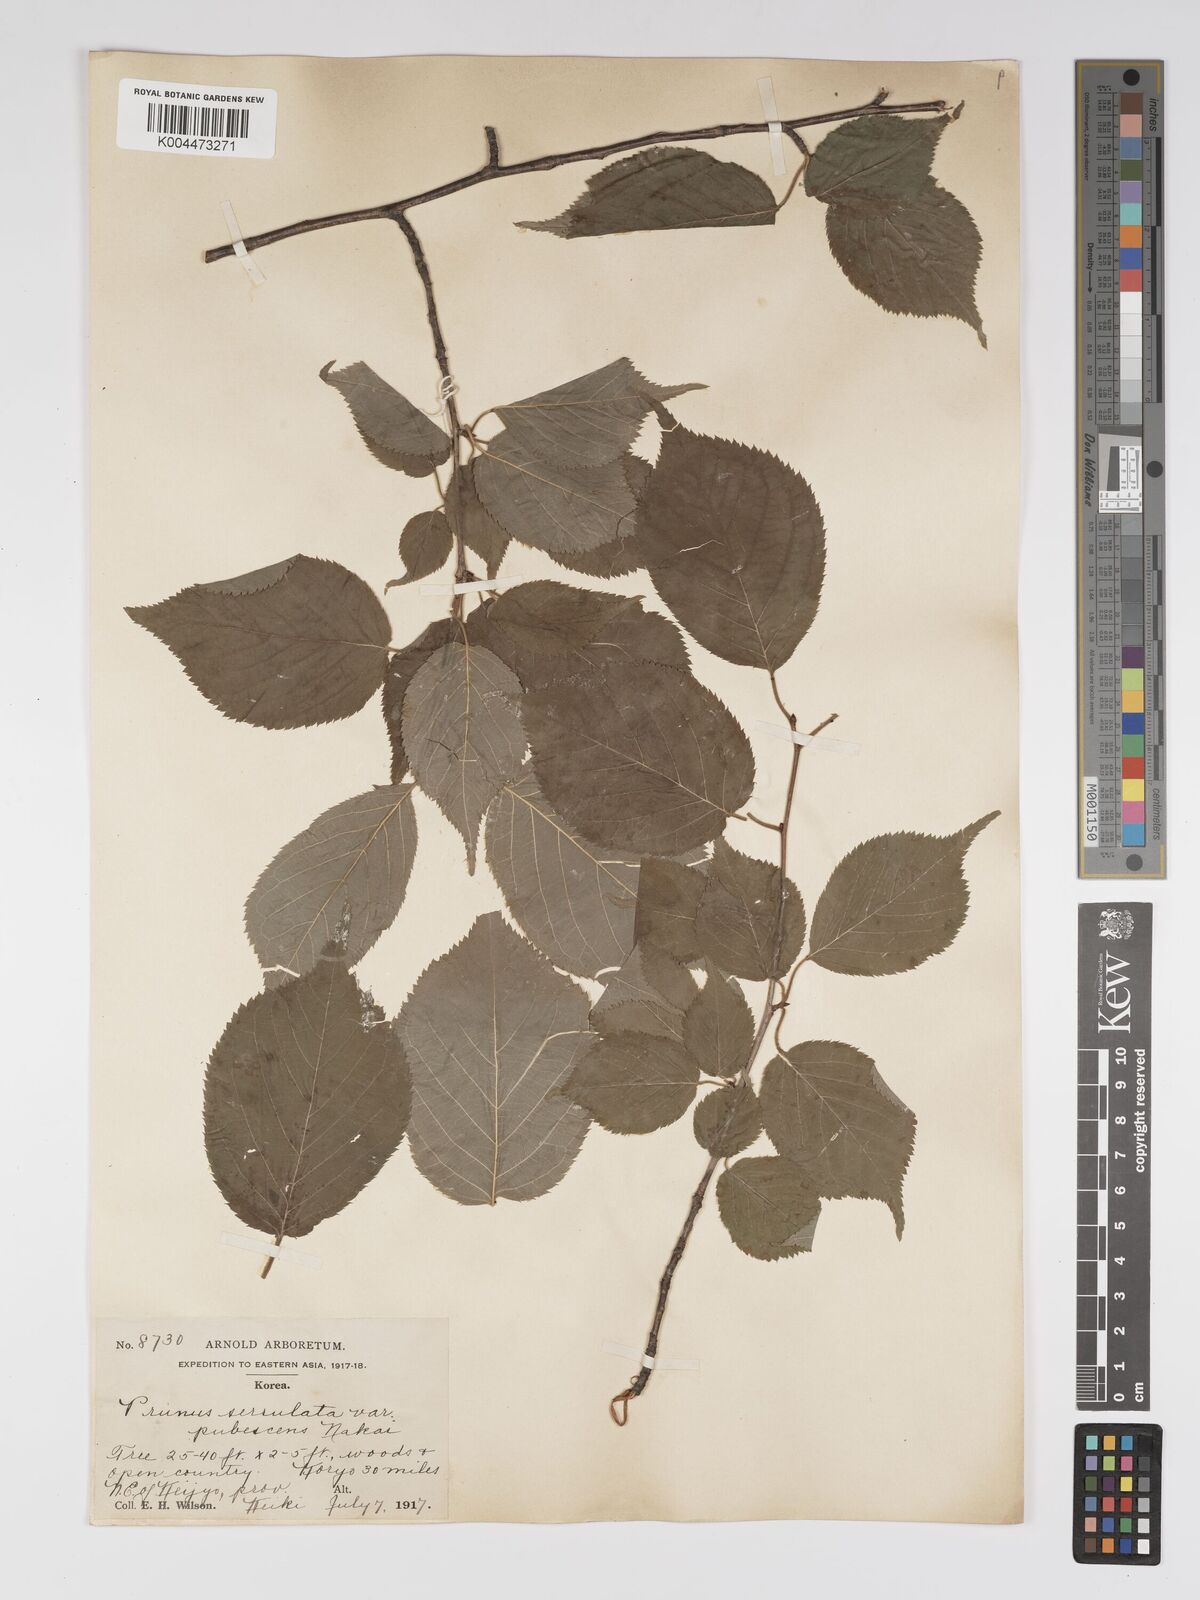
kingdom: Plantae
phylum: Tracheophyta
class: Magnoliopsida
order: Rosales
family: Rosaceae
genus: Prunus
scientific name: Prunus serrulata
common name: Japanese cherry
